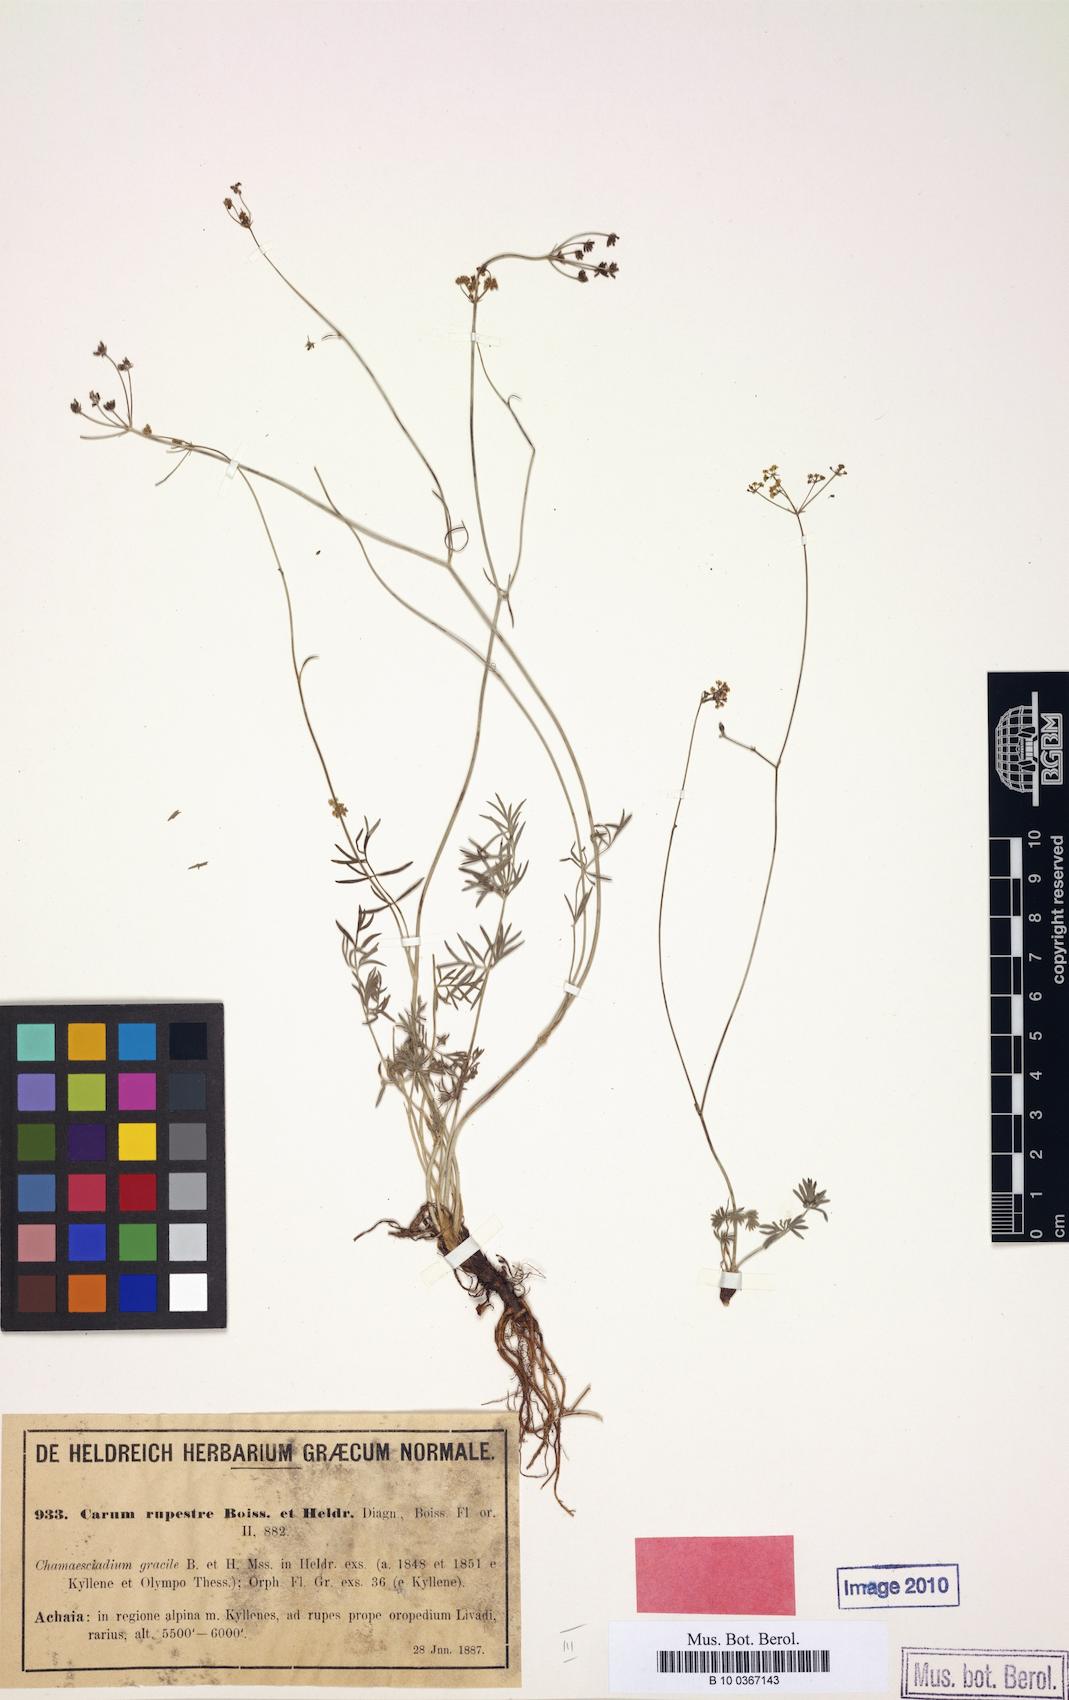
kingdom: Plantae
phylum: Tracheophyta
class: Magnoliopsida
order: Apiales
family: Apiaceae
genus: Carum
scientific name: Carum heldreichii
